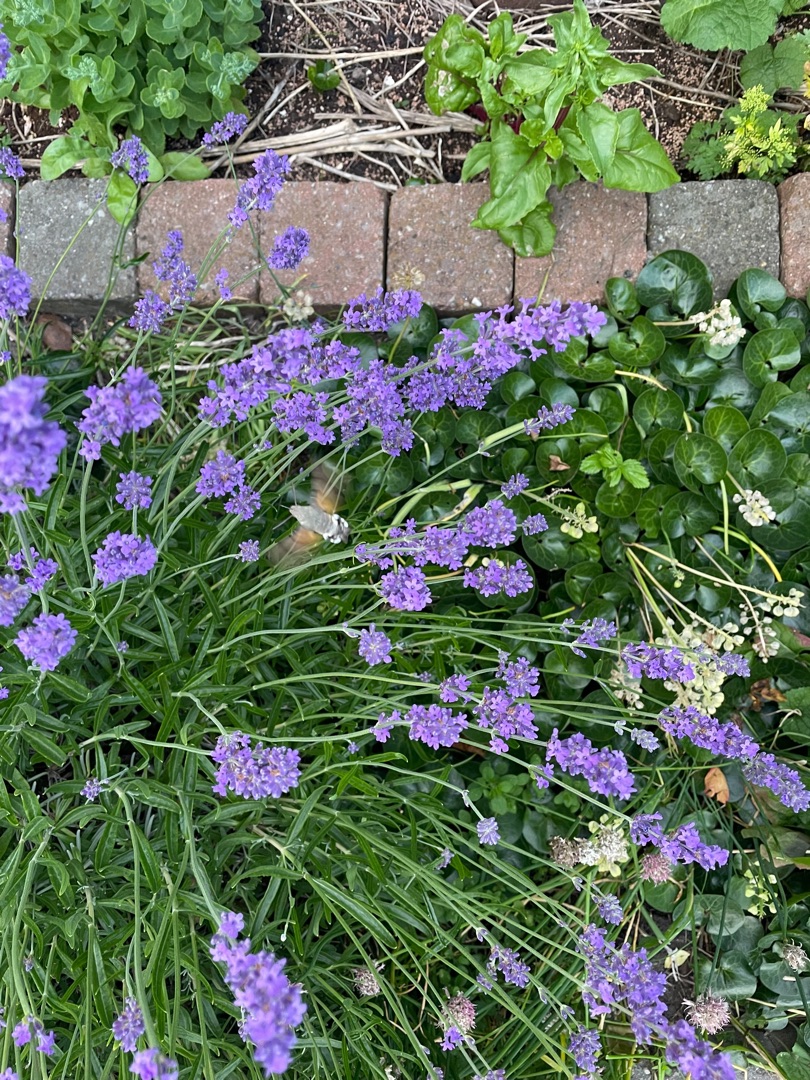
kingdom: Animalia
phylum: Arthropoda
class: Insecta
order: Lepidoptera
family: Sphingidae
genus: Macroglossum
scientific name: Macroglossum stellatarum
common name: Duehale
